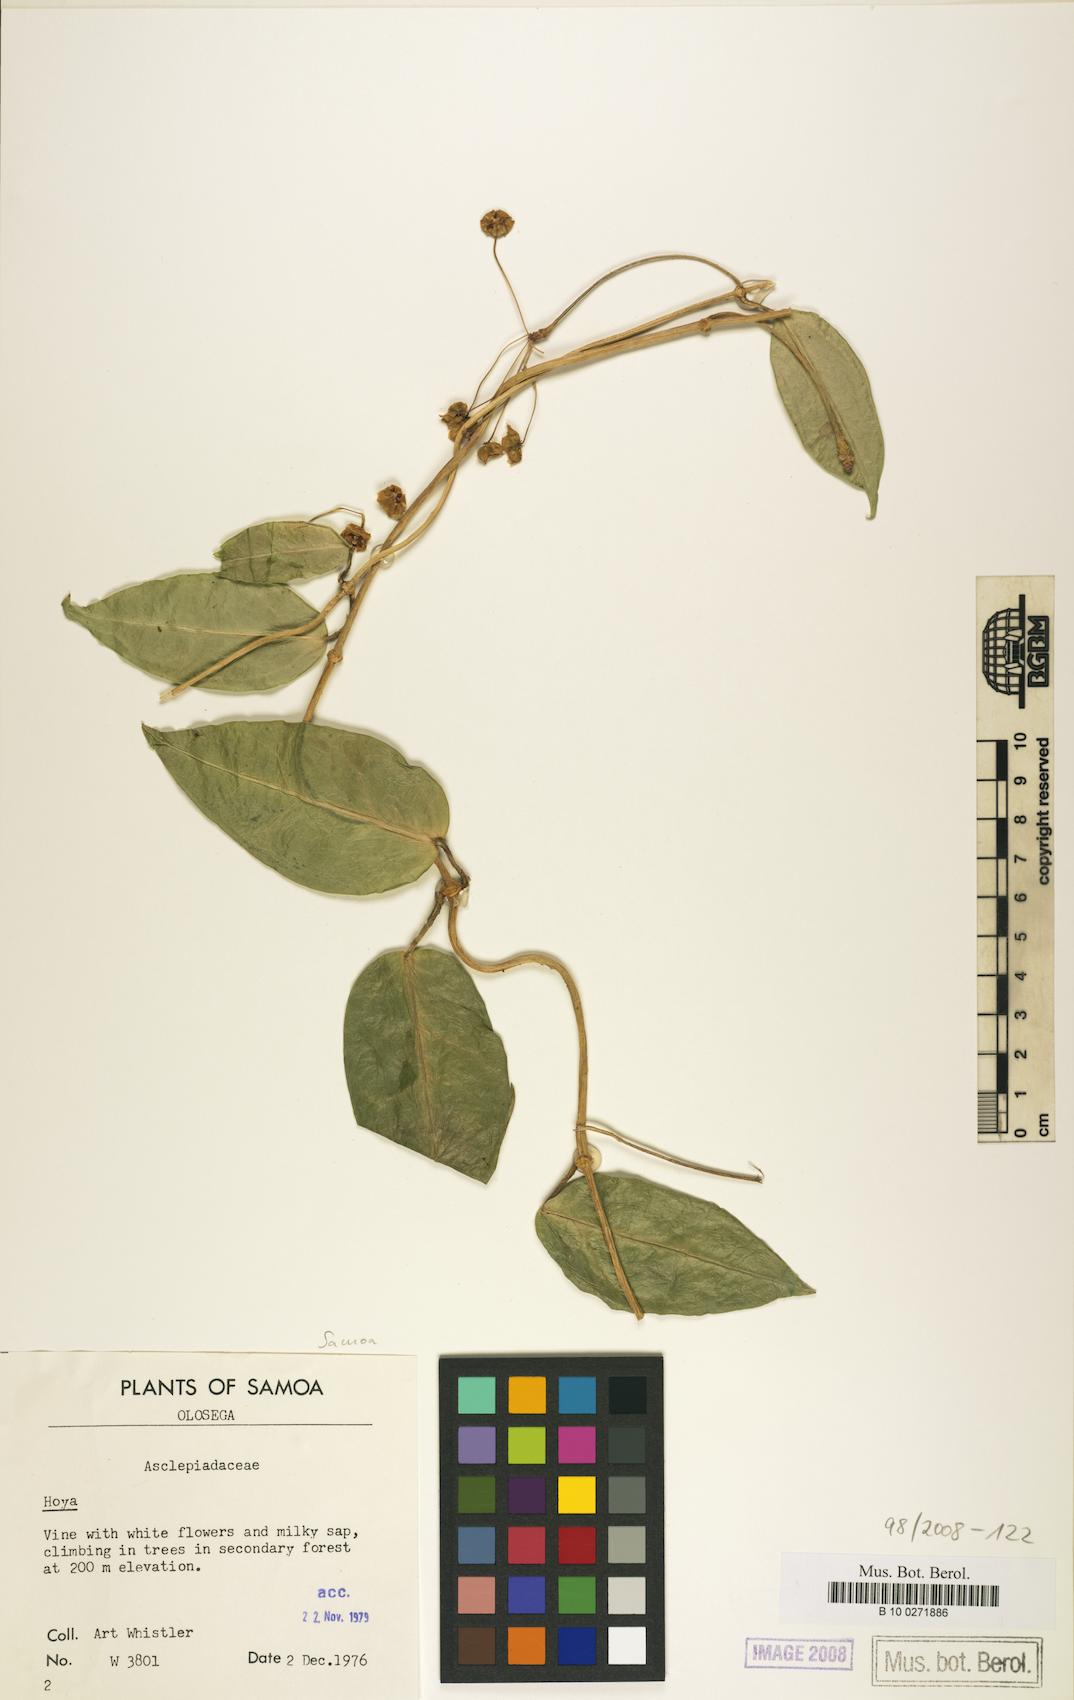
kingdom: Plantae
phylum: Tracheophyta
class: Magnoliopsida
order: Gentianales
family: Apocynaceae
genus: Hoya
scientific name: Hoya
